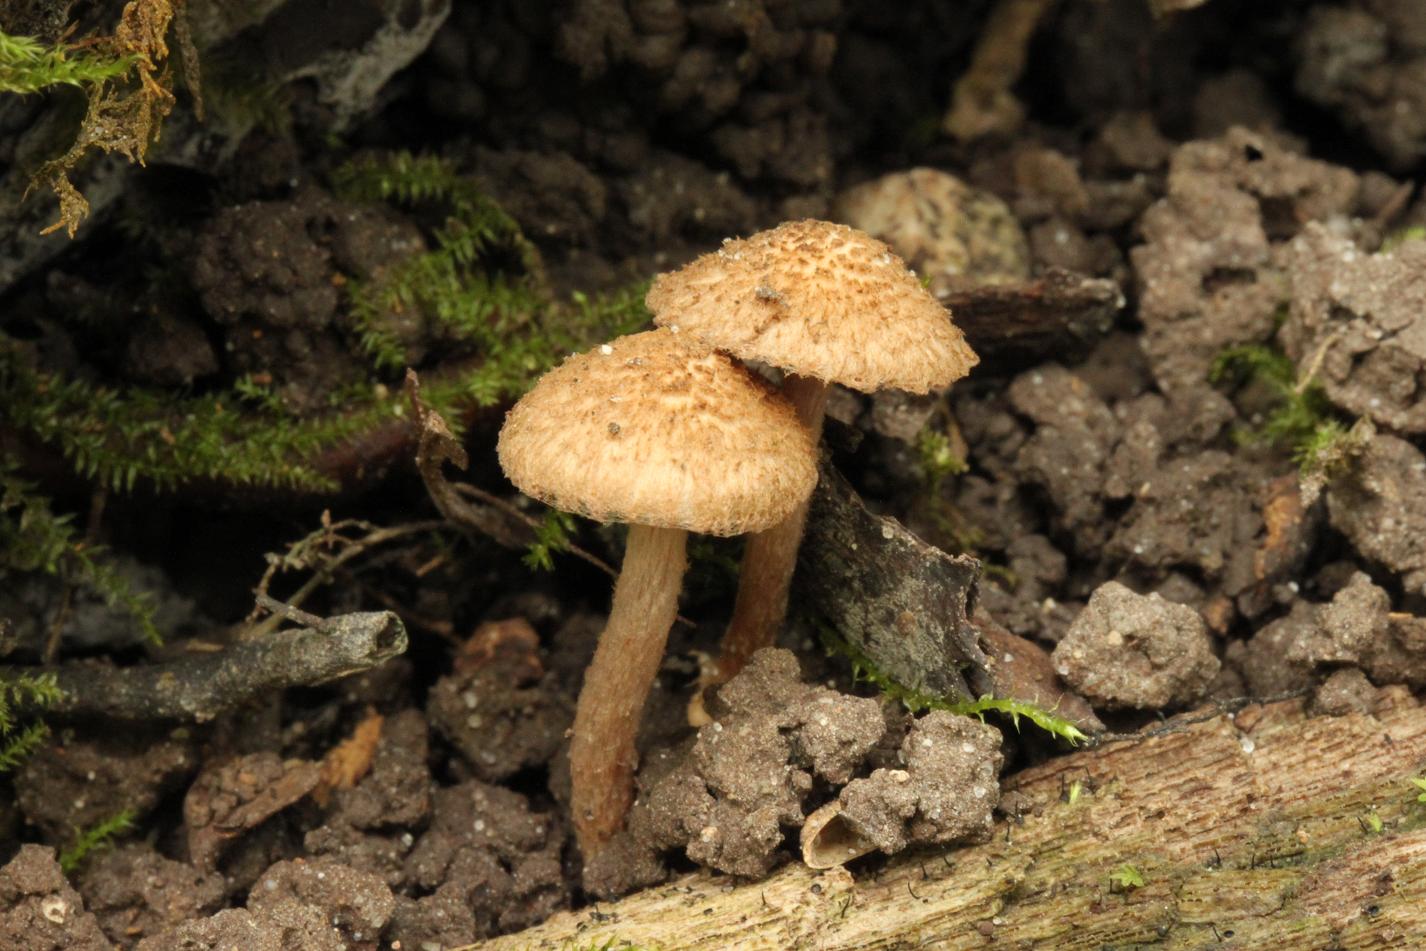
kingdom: Fungi
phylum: Basidiomycota
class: Agaricomycetes
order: Agaricales
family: Inocybaceae
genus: Inocybe
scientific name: Inocybe cincinnata
